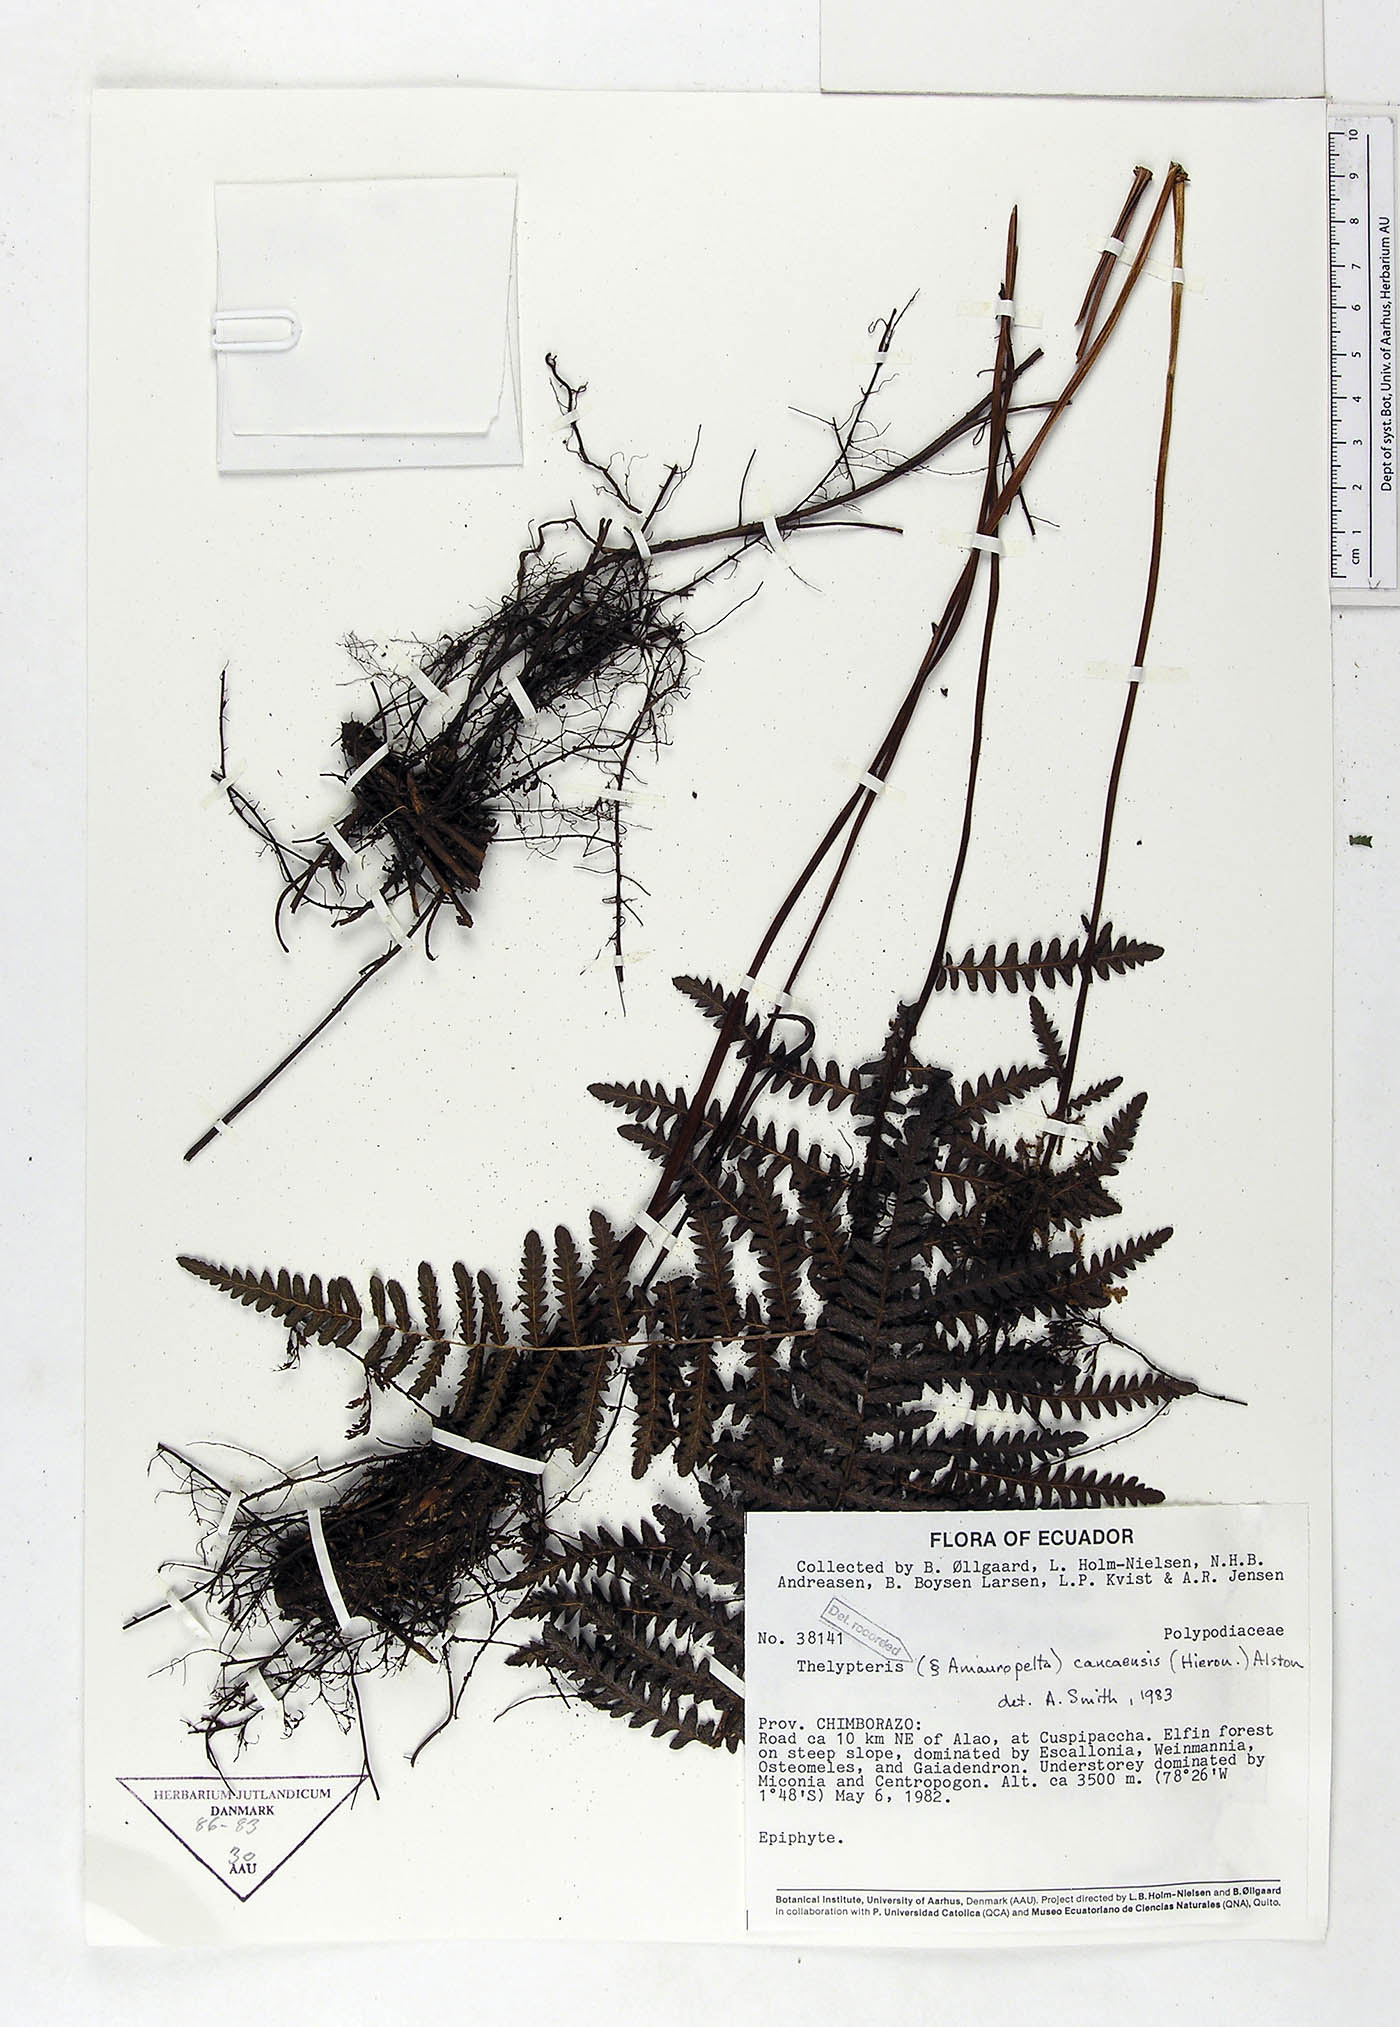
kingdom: Plantae
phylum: Tracheophyta
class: Polypodiopsida
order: Polypodiales
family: Thelypteridaceae
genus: Amauropelta
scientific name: Amauropelta caucaensis
